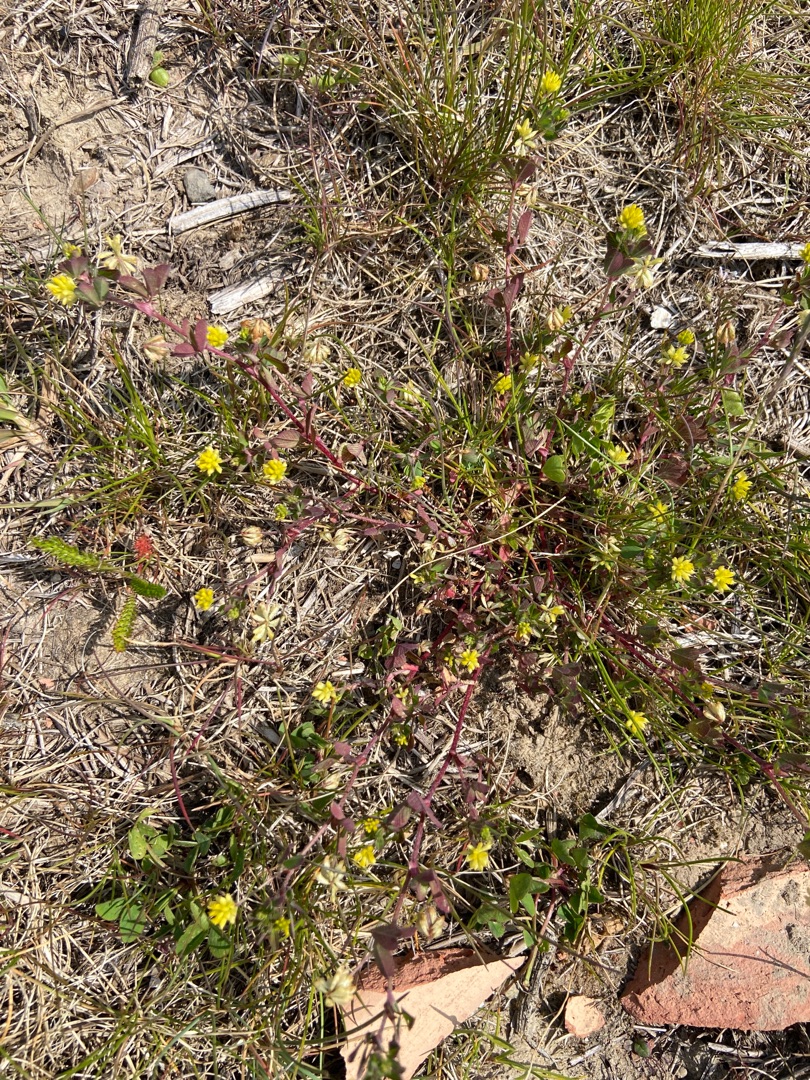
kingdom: Plantae
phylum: Tracheophyta
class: Magnoliopsida
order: Fabales
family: Fabaceae
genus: Trifolium
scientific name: Trifolium dubium
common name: Fin kløver
